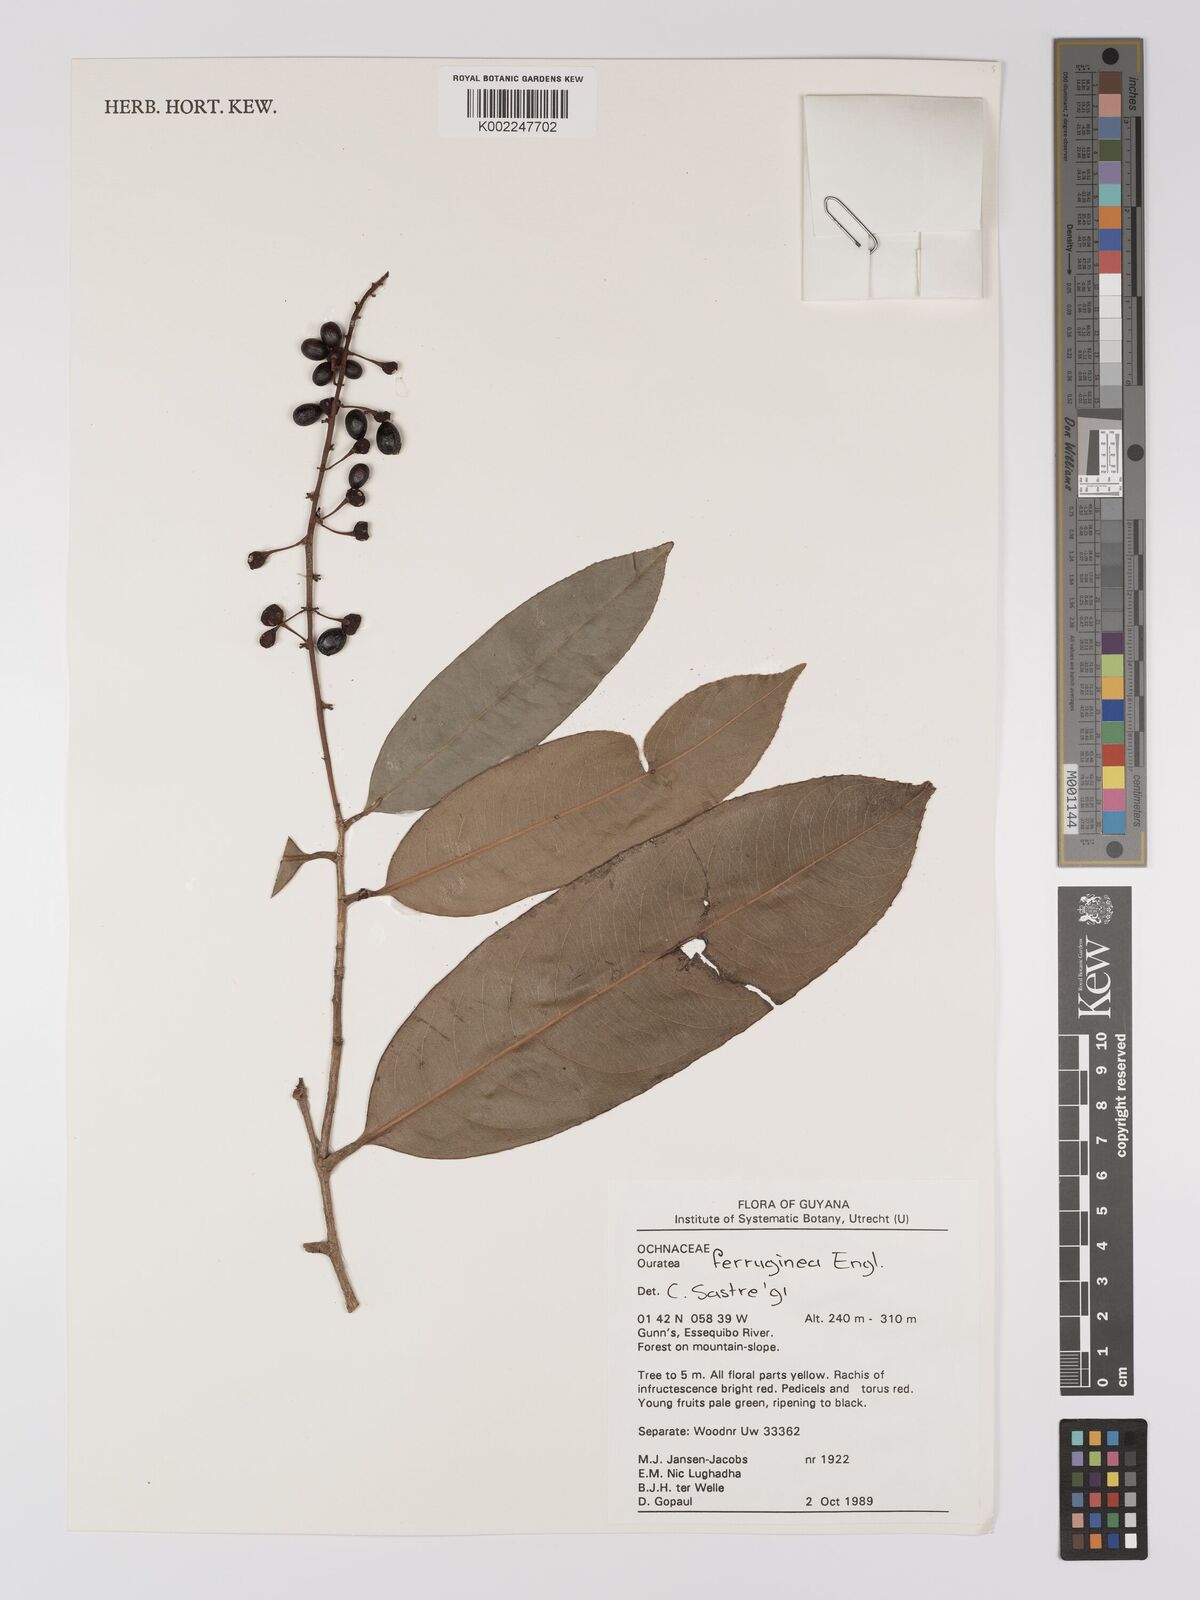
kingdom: Plantae
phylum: Tracheophyta
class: Magnoliopsida
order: Malpighiales
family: Ochnaceae
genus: Ouratea
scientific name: Ouratea ferruginea
